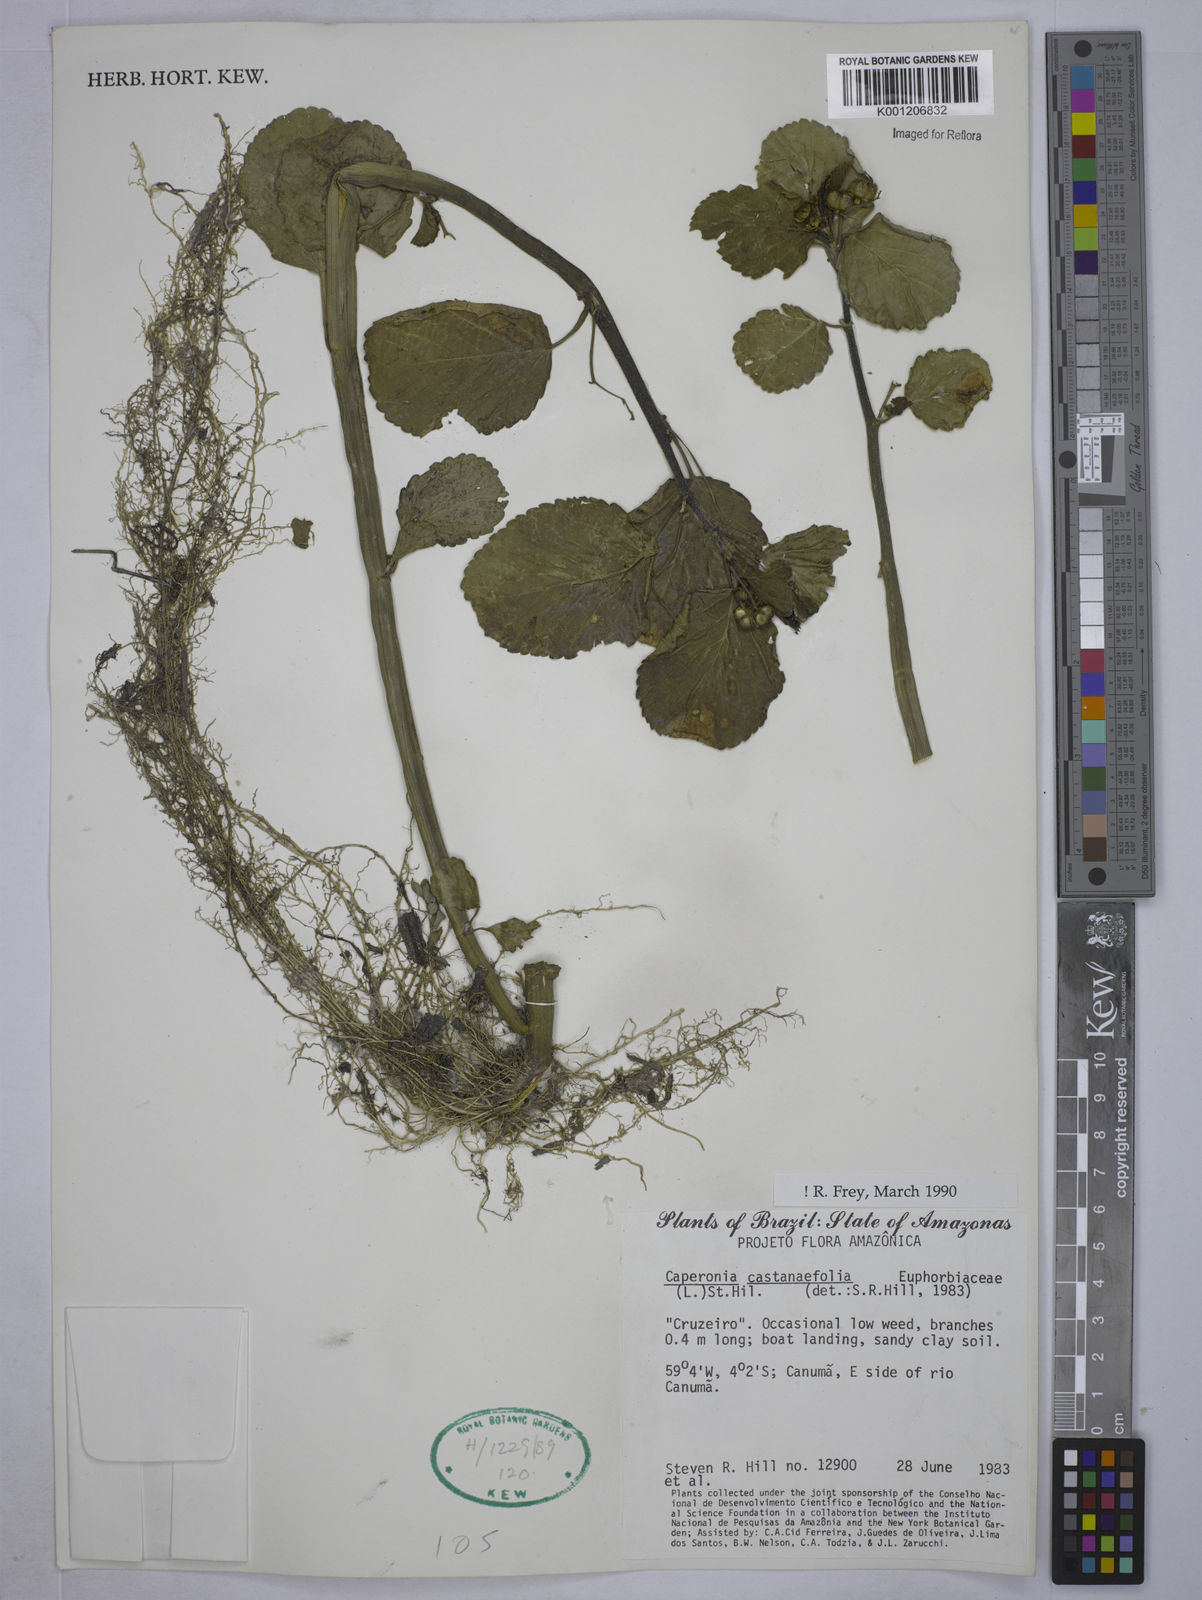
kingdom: Plantae
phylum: Tracheophyta
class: Magnoliopsida
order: Malpighiales
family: Euphorbiaceae
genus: Caperonia
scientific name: Caperonia castaneifolia
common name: Chestnutleaf false croton
